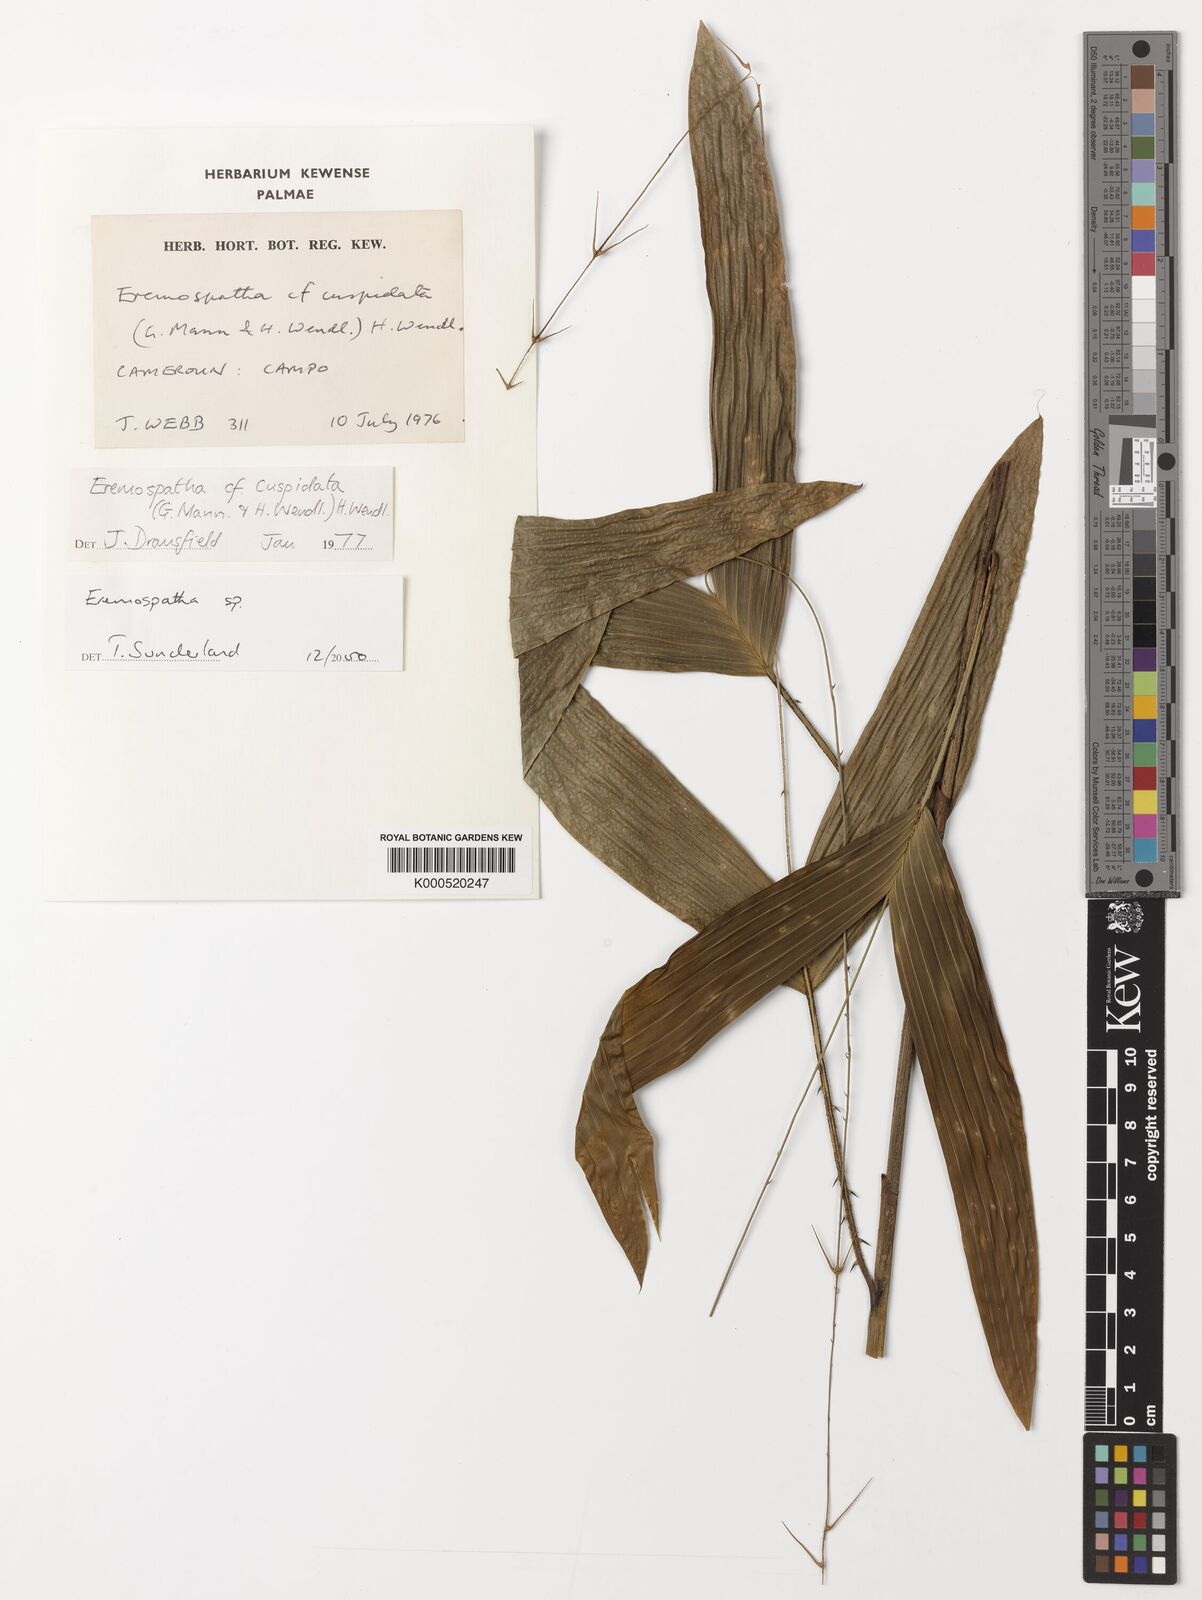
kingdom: Plantae
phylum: Tracheophyta
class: Liliopsida
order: Arecales
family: Arecaceae
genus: Eremospatha
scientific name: Eremospatha
